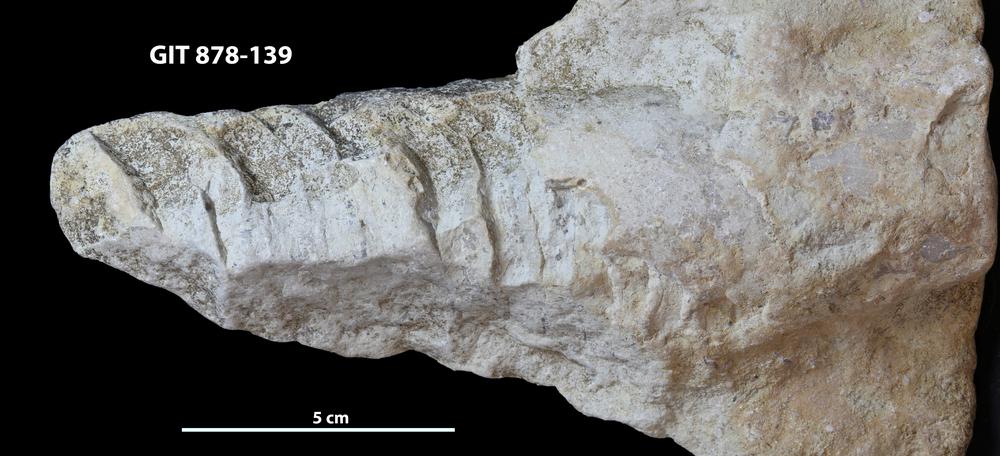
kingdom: Animalia
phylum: Mollusca
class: Cephalopoda
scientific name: Cephalopoda
